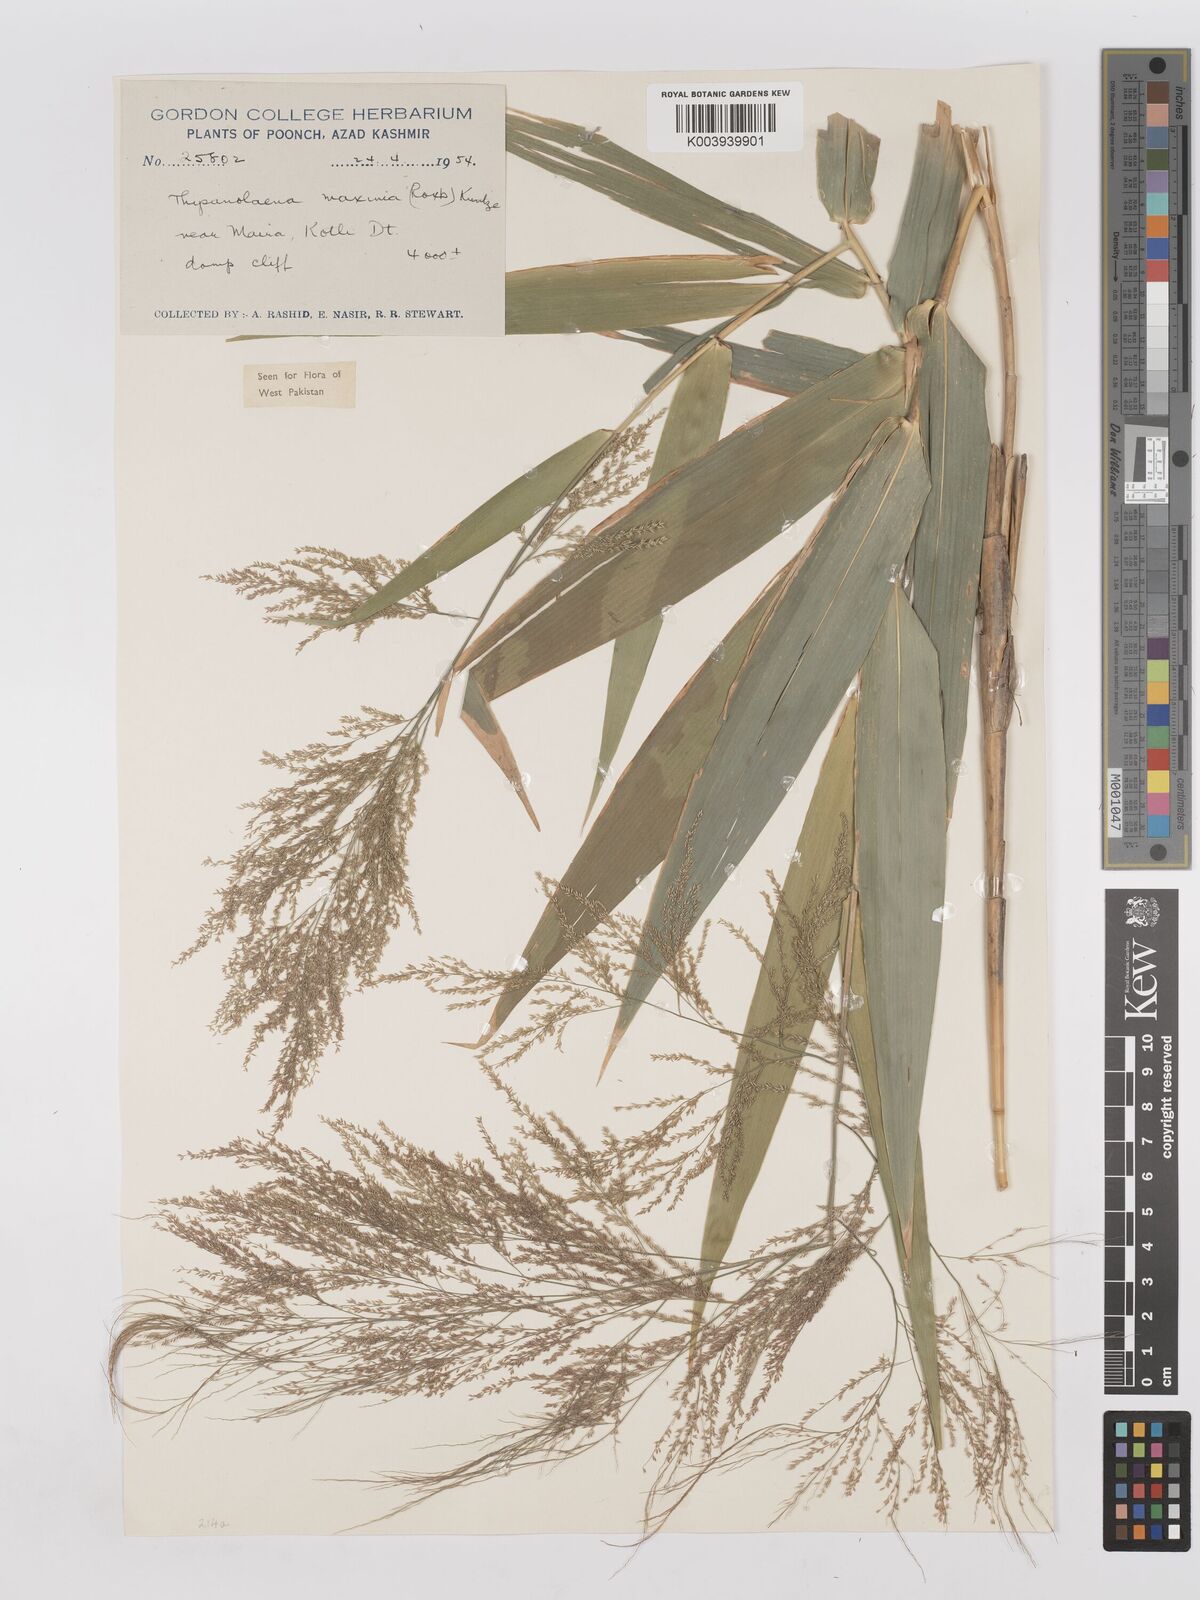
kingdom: Plantae
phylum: Tracheophyta
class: Liliopsida
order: Poales
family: Poaceae
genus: Thysanolaena
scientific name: Thysanolaena latifolia
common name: Tiger grass
